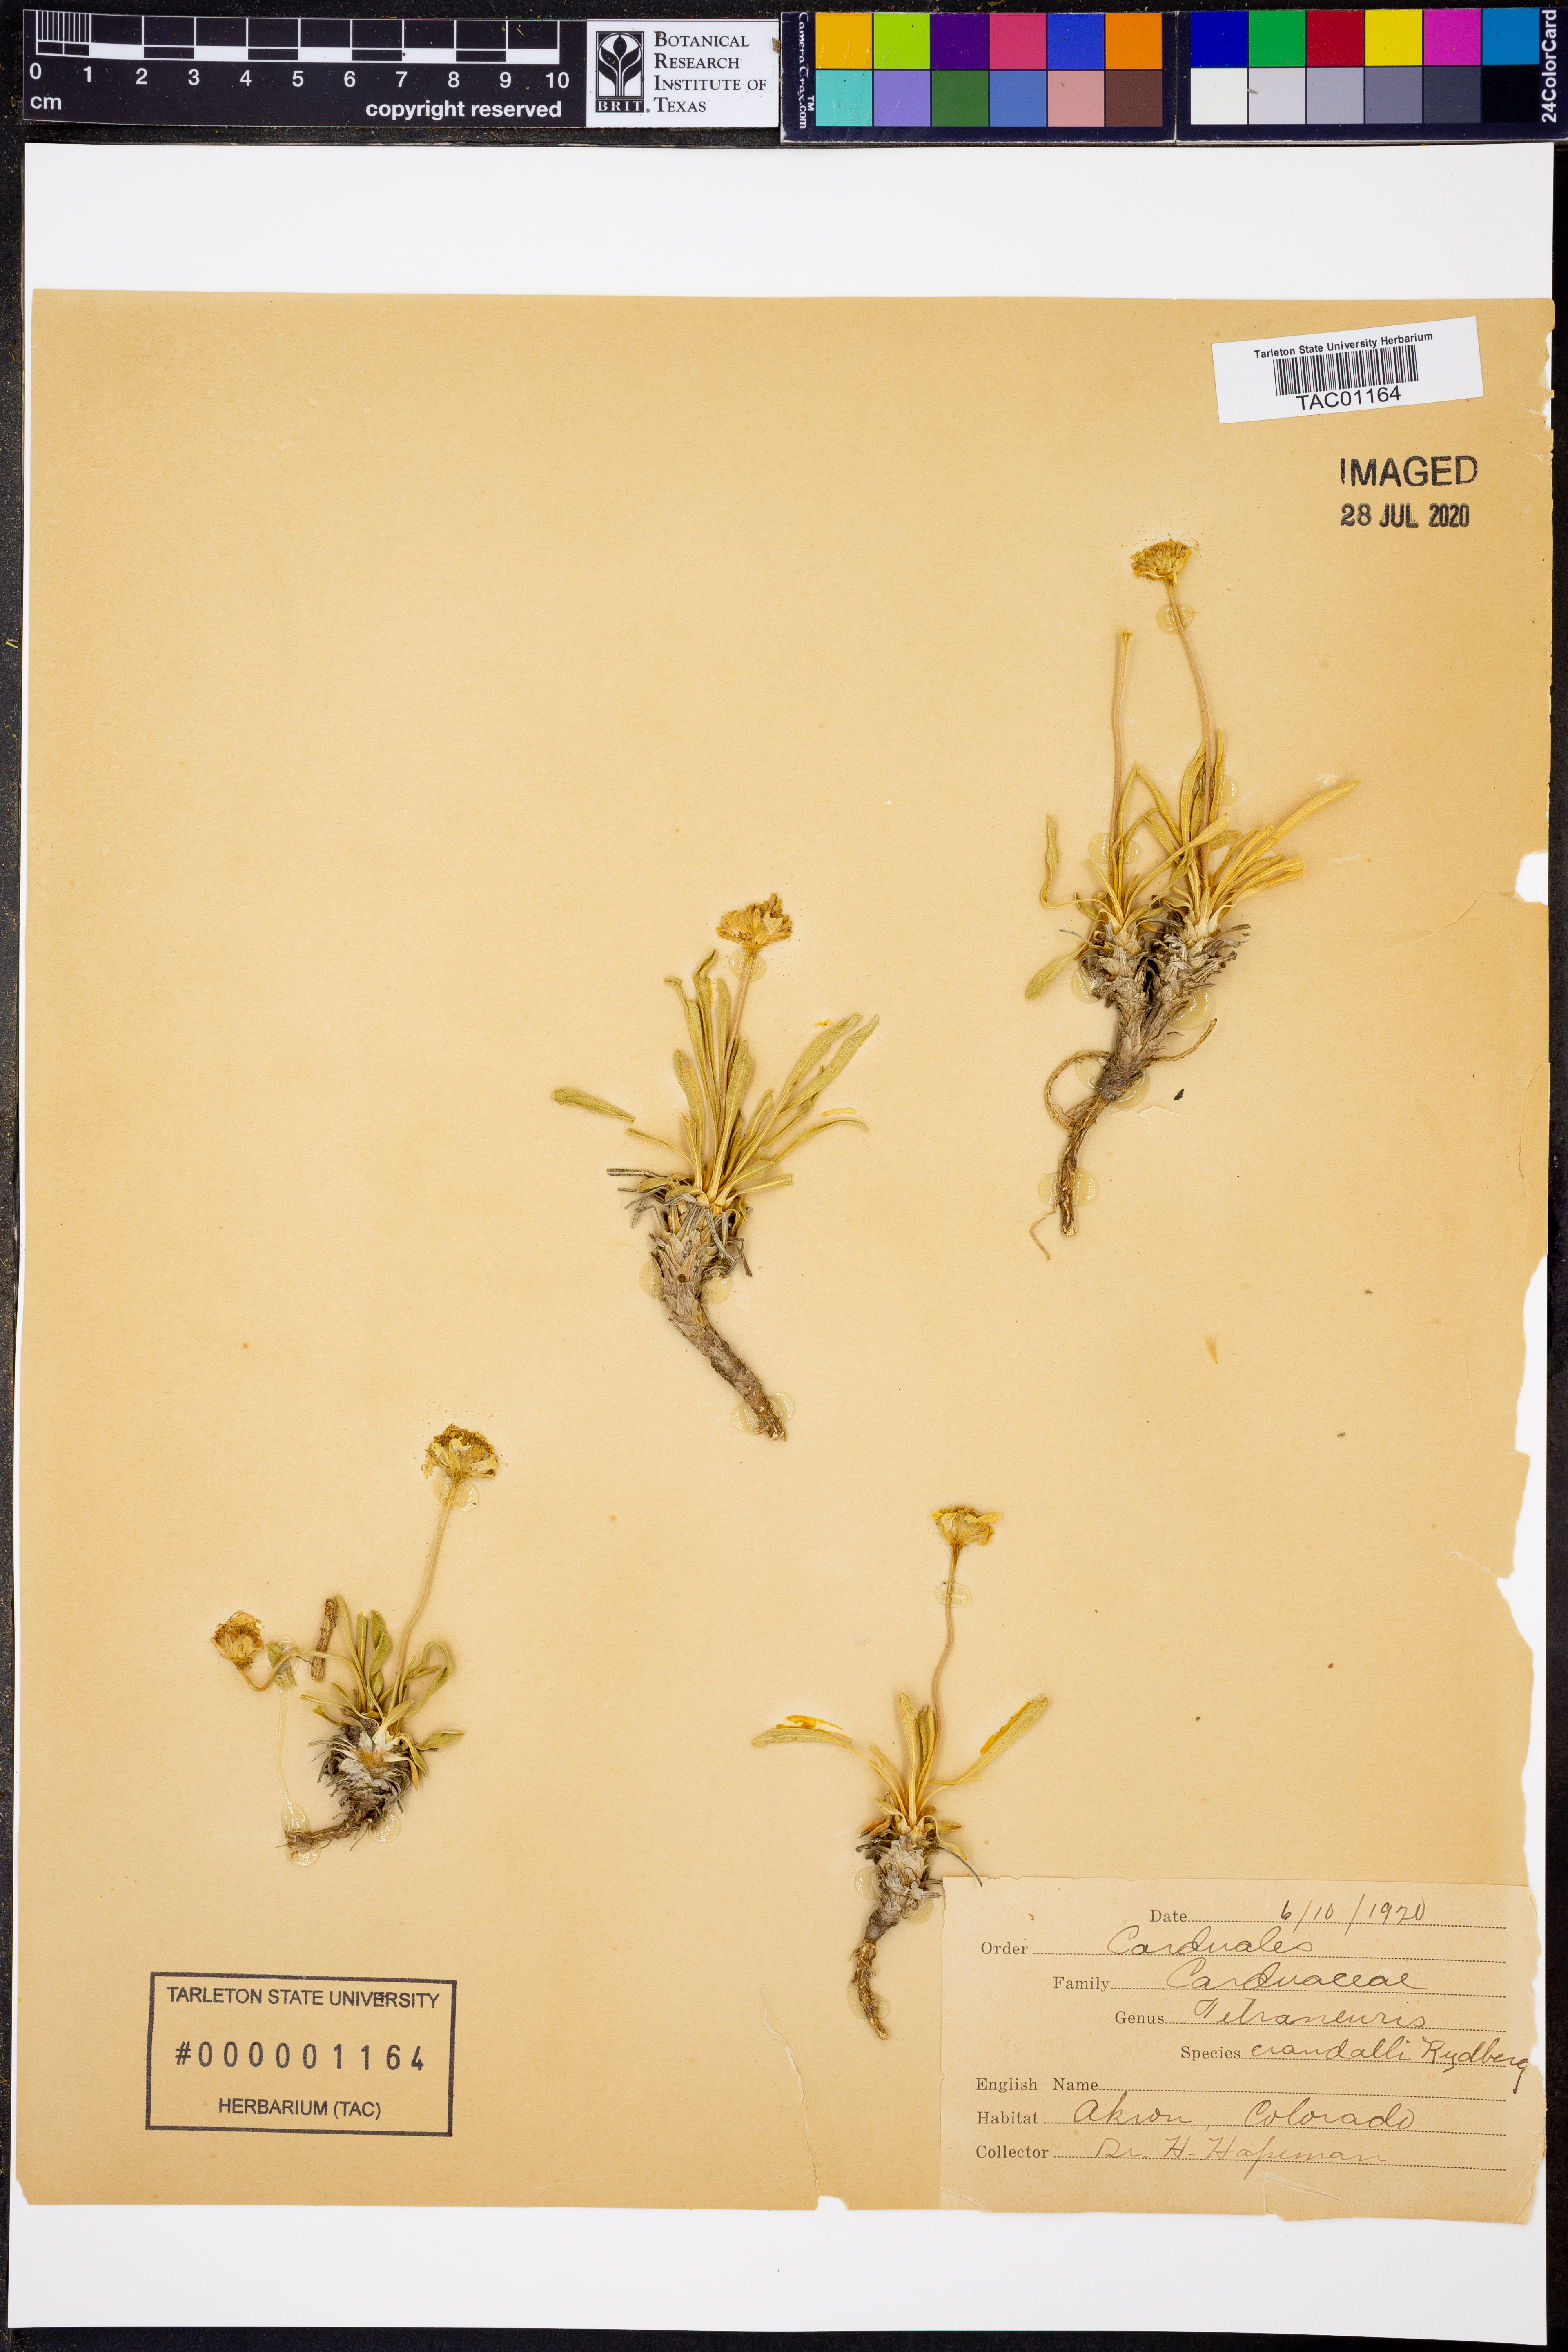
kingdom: Plantae
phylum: Tracheophyta
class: Magnoliopsida
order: Asterales
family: Asteraceae
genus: Tetraneuris
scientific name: Tetraneuris acaulis
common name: Butte marigold
